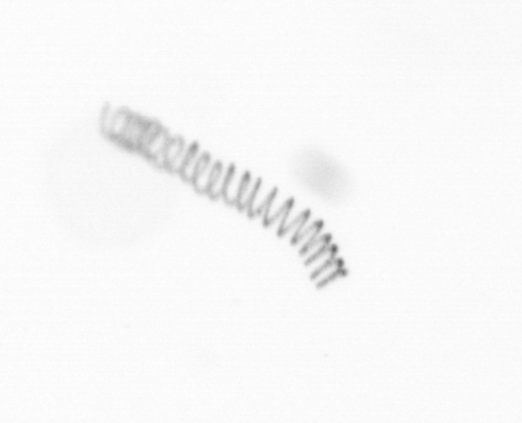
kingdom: Chromista
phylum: Ochrophyta
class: Bacillariophyceae
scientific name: Bacillariophyceae
